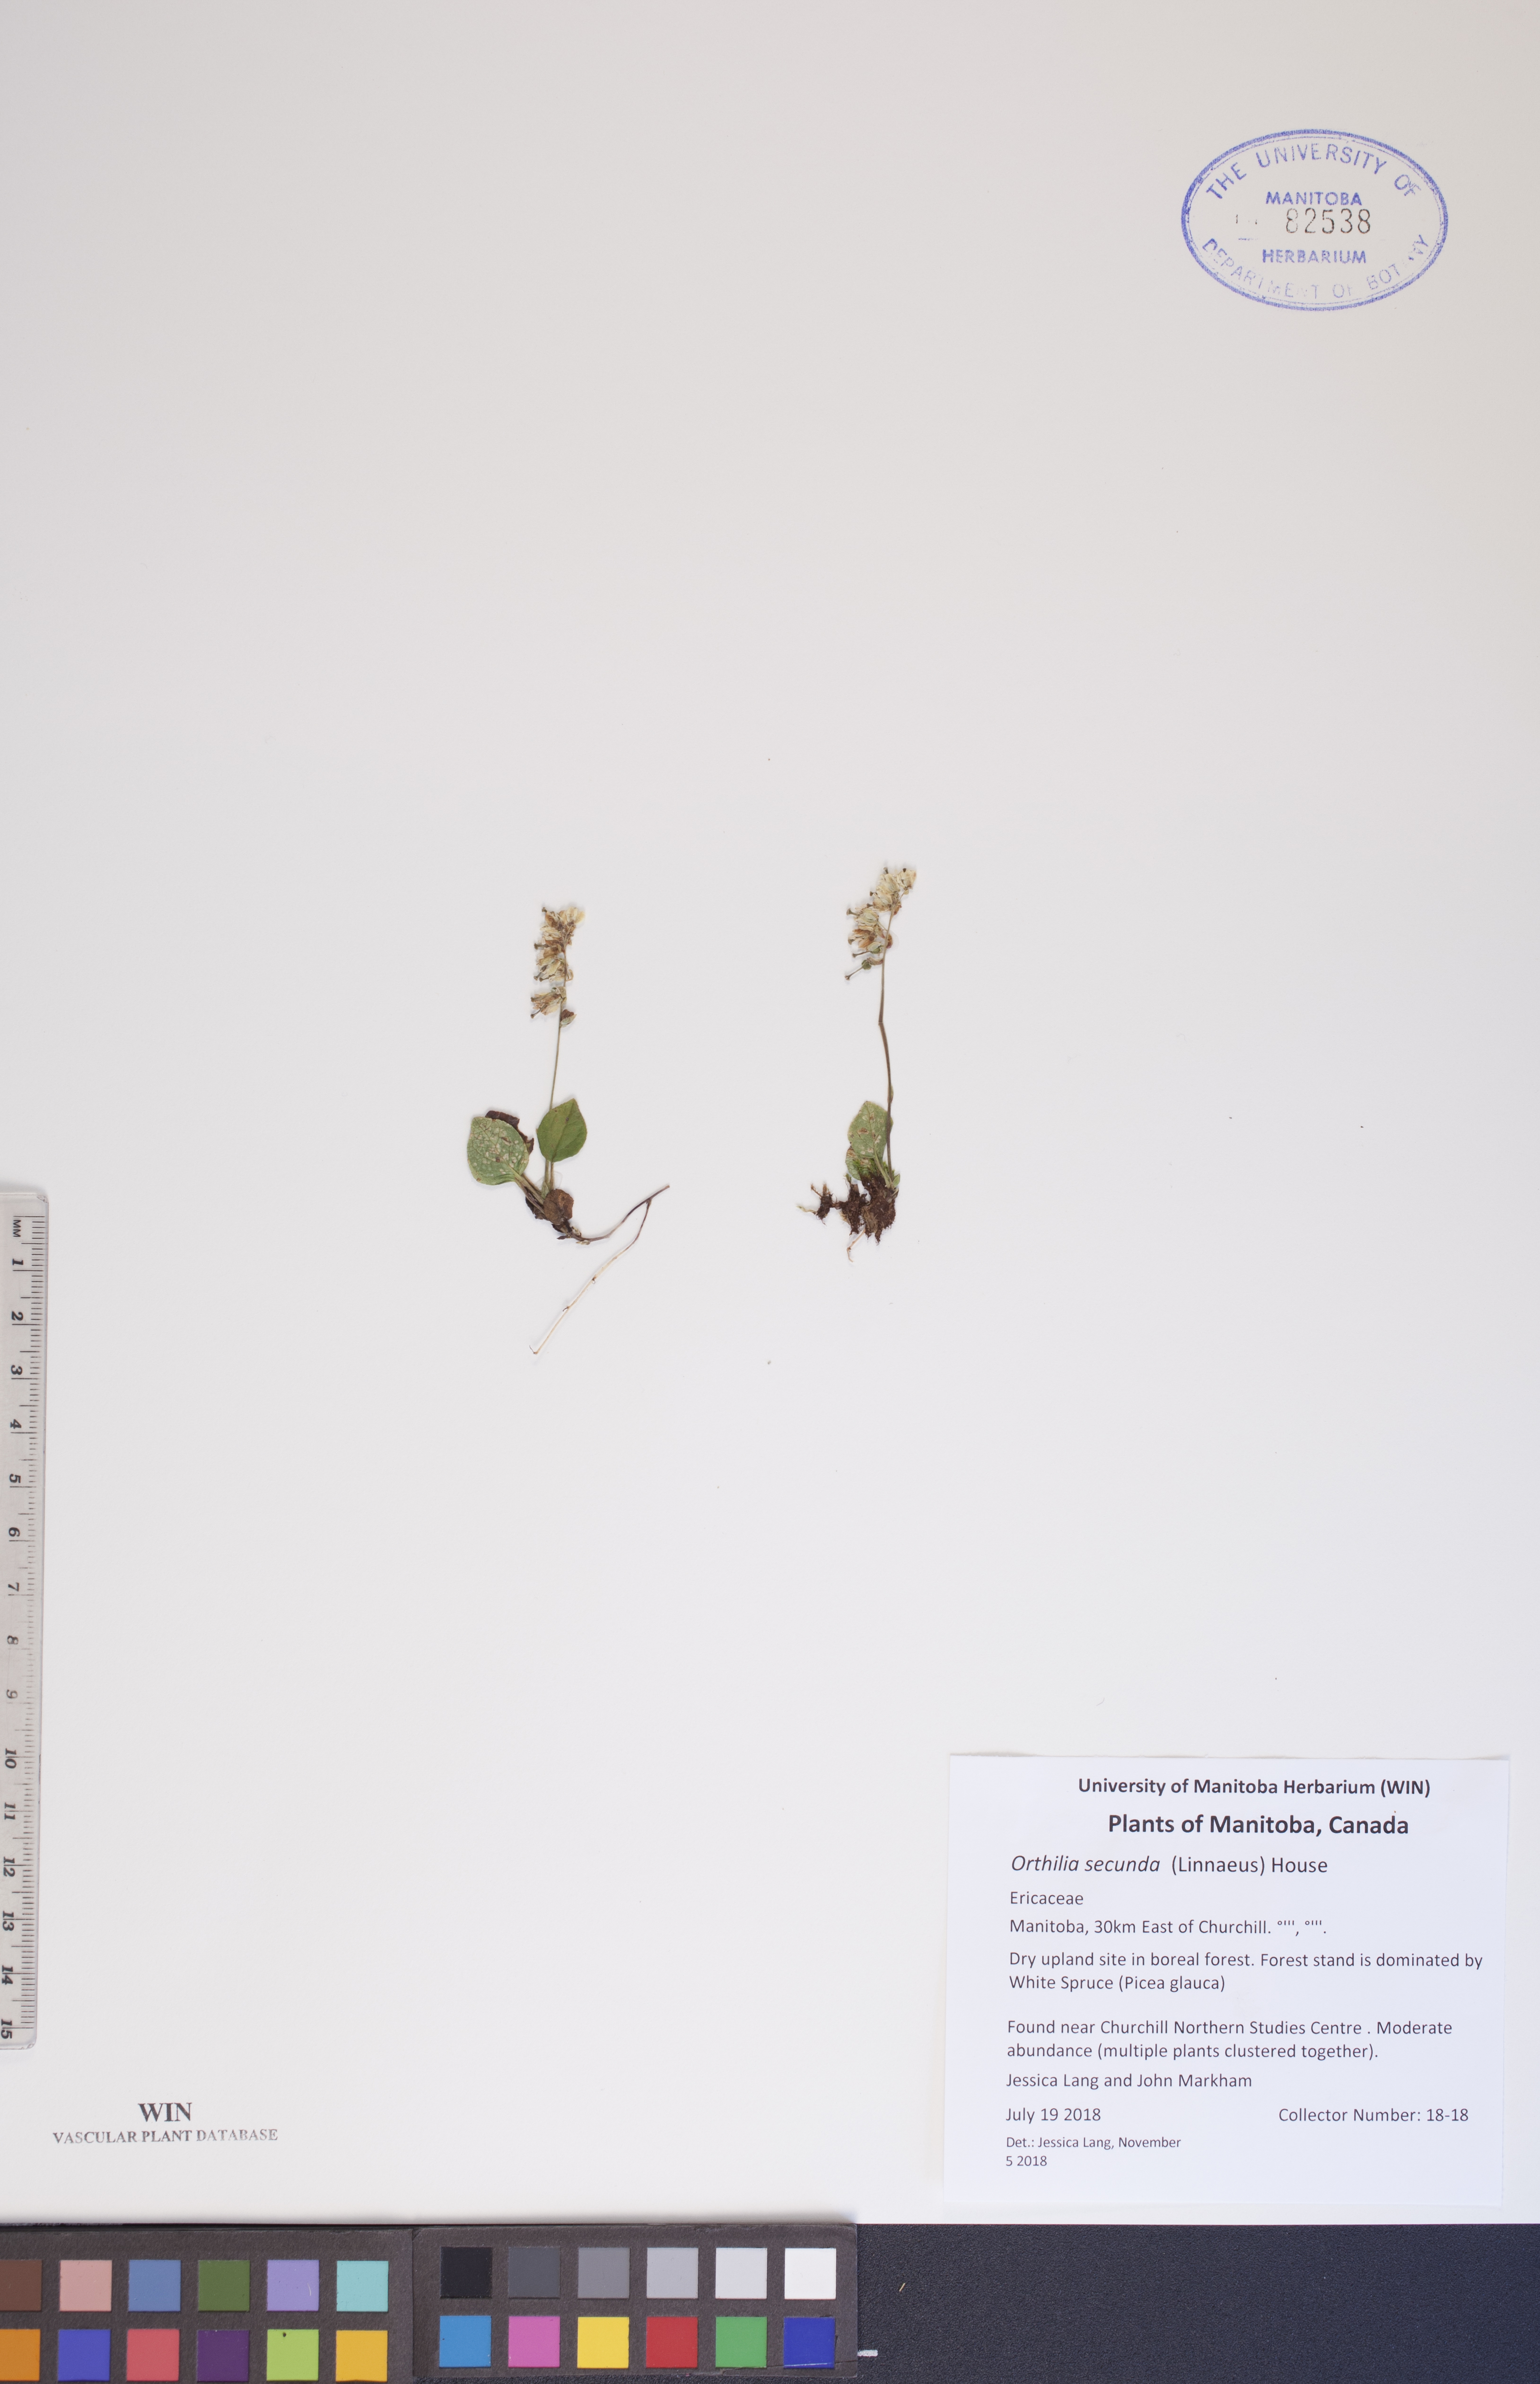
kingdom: Plantae
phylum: Tracheophyta
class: Magnoliopsida
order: Ericales
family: Ericaceae
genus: Orthilia
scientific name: Orthilia secunda
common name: One-sided orthilia
